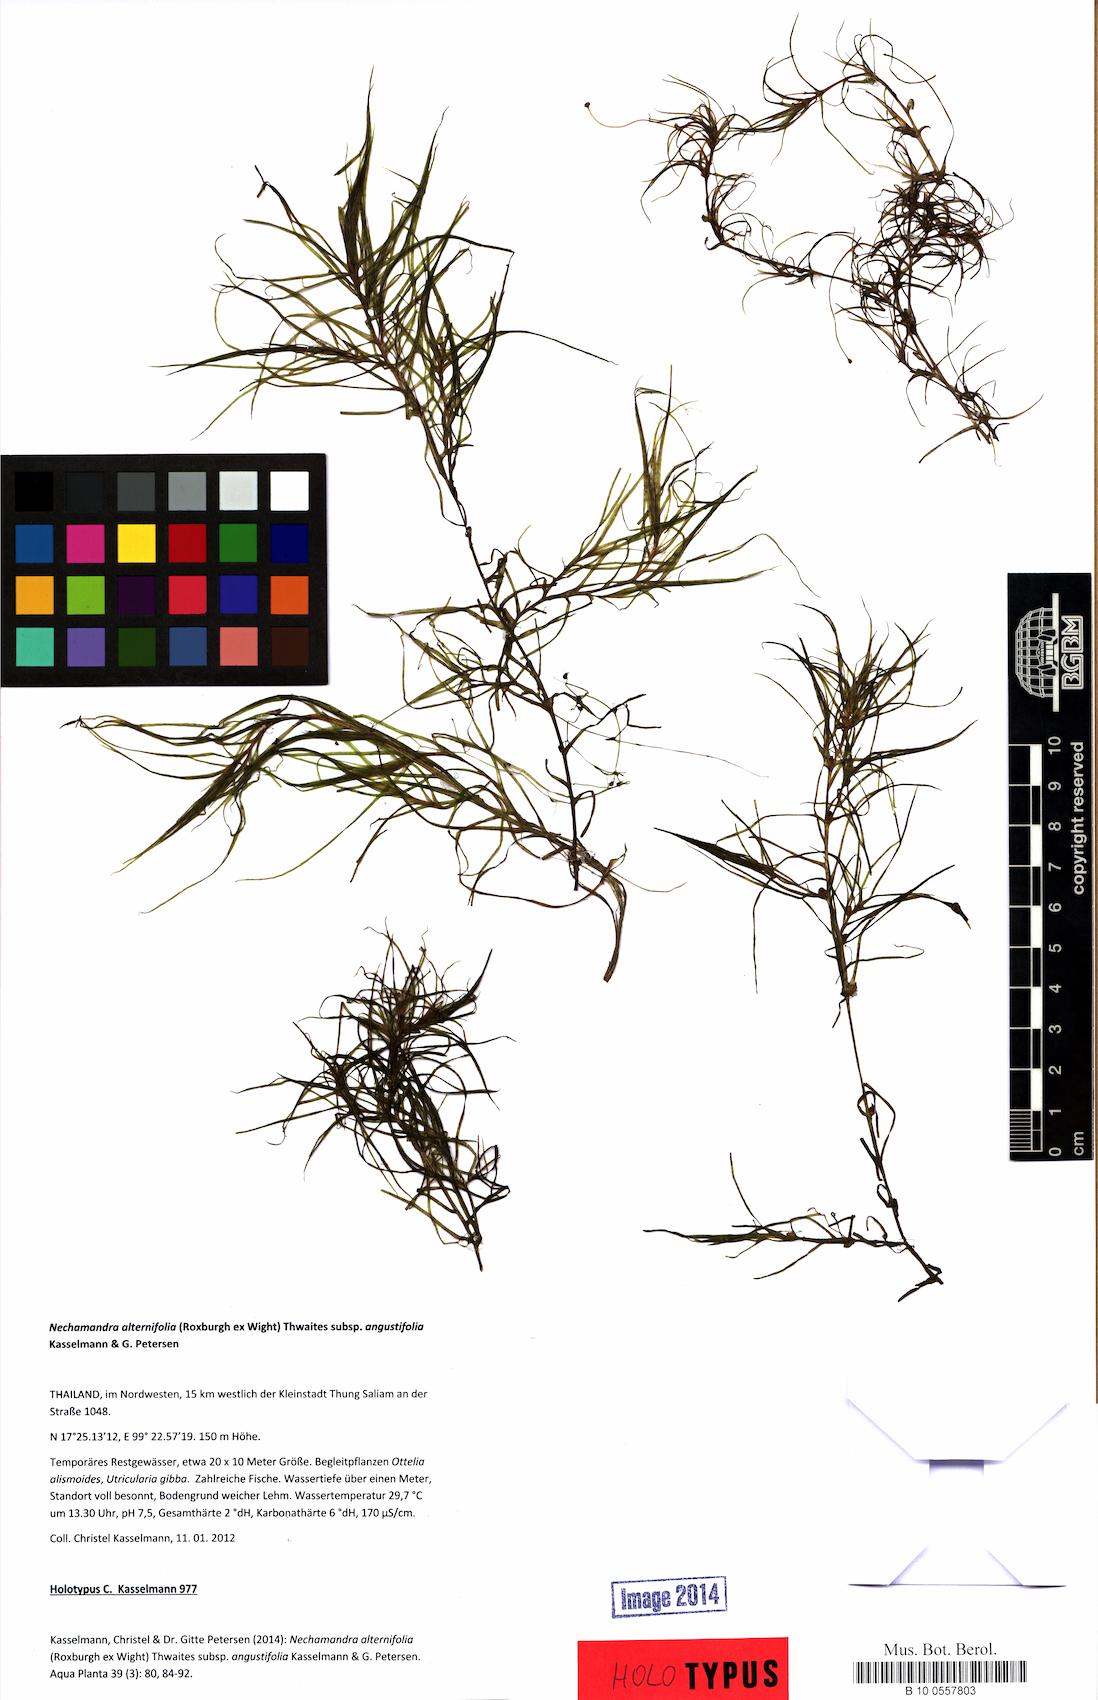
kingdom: Plantae
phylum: Tracheophyta
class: Liliopsida
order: Alismatales
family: Hydrocharitaceae
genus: Nechamandra
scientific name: Nechamandra alternifolia
